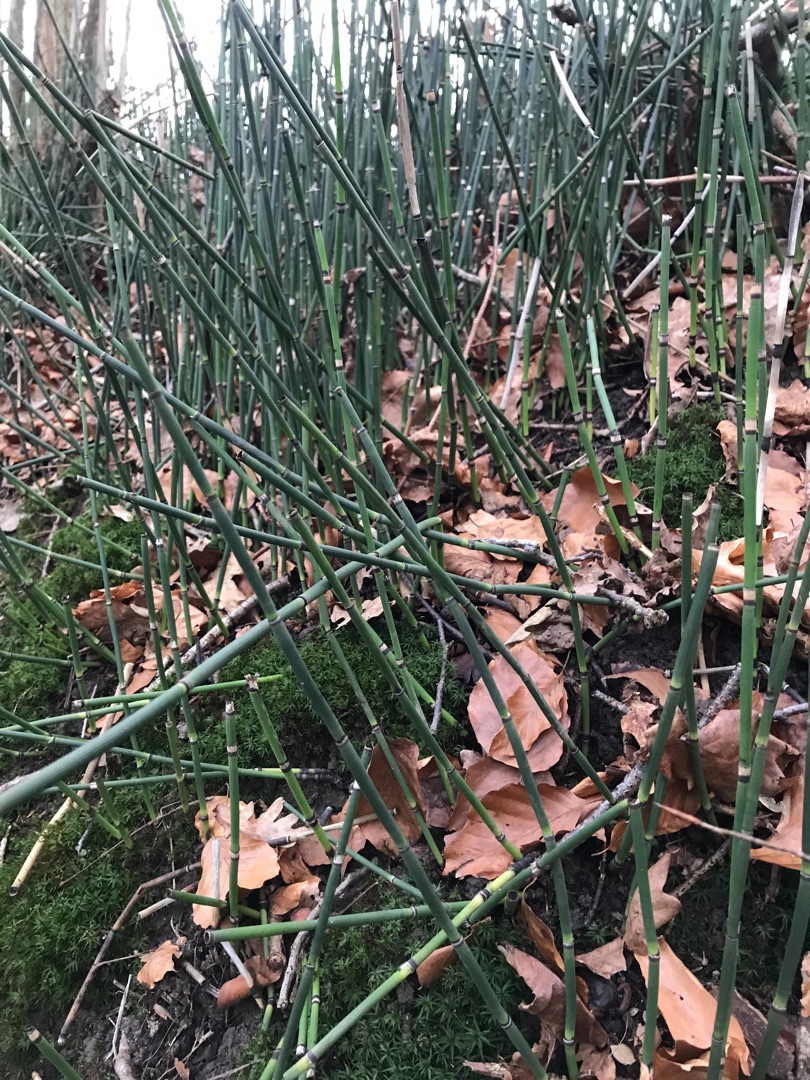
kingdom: Plantae
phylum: Tracheophyta
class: Polypodiopsida
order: Equisetales
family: Equisetaceae
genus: Equisetum
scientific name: Equisetum hyemale
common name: Skavgræs
